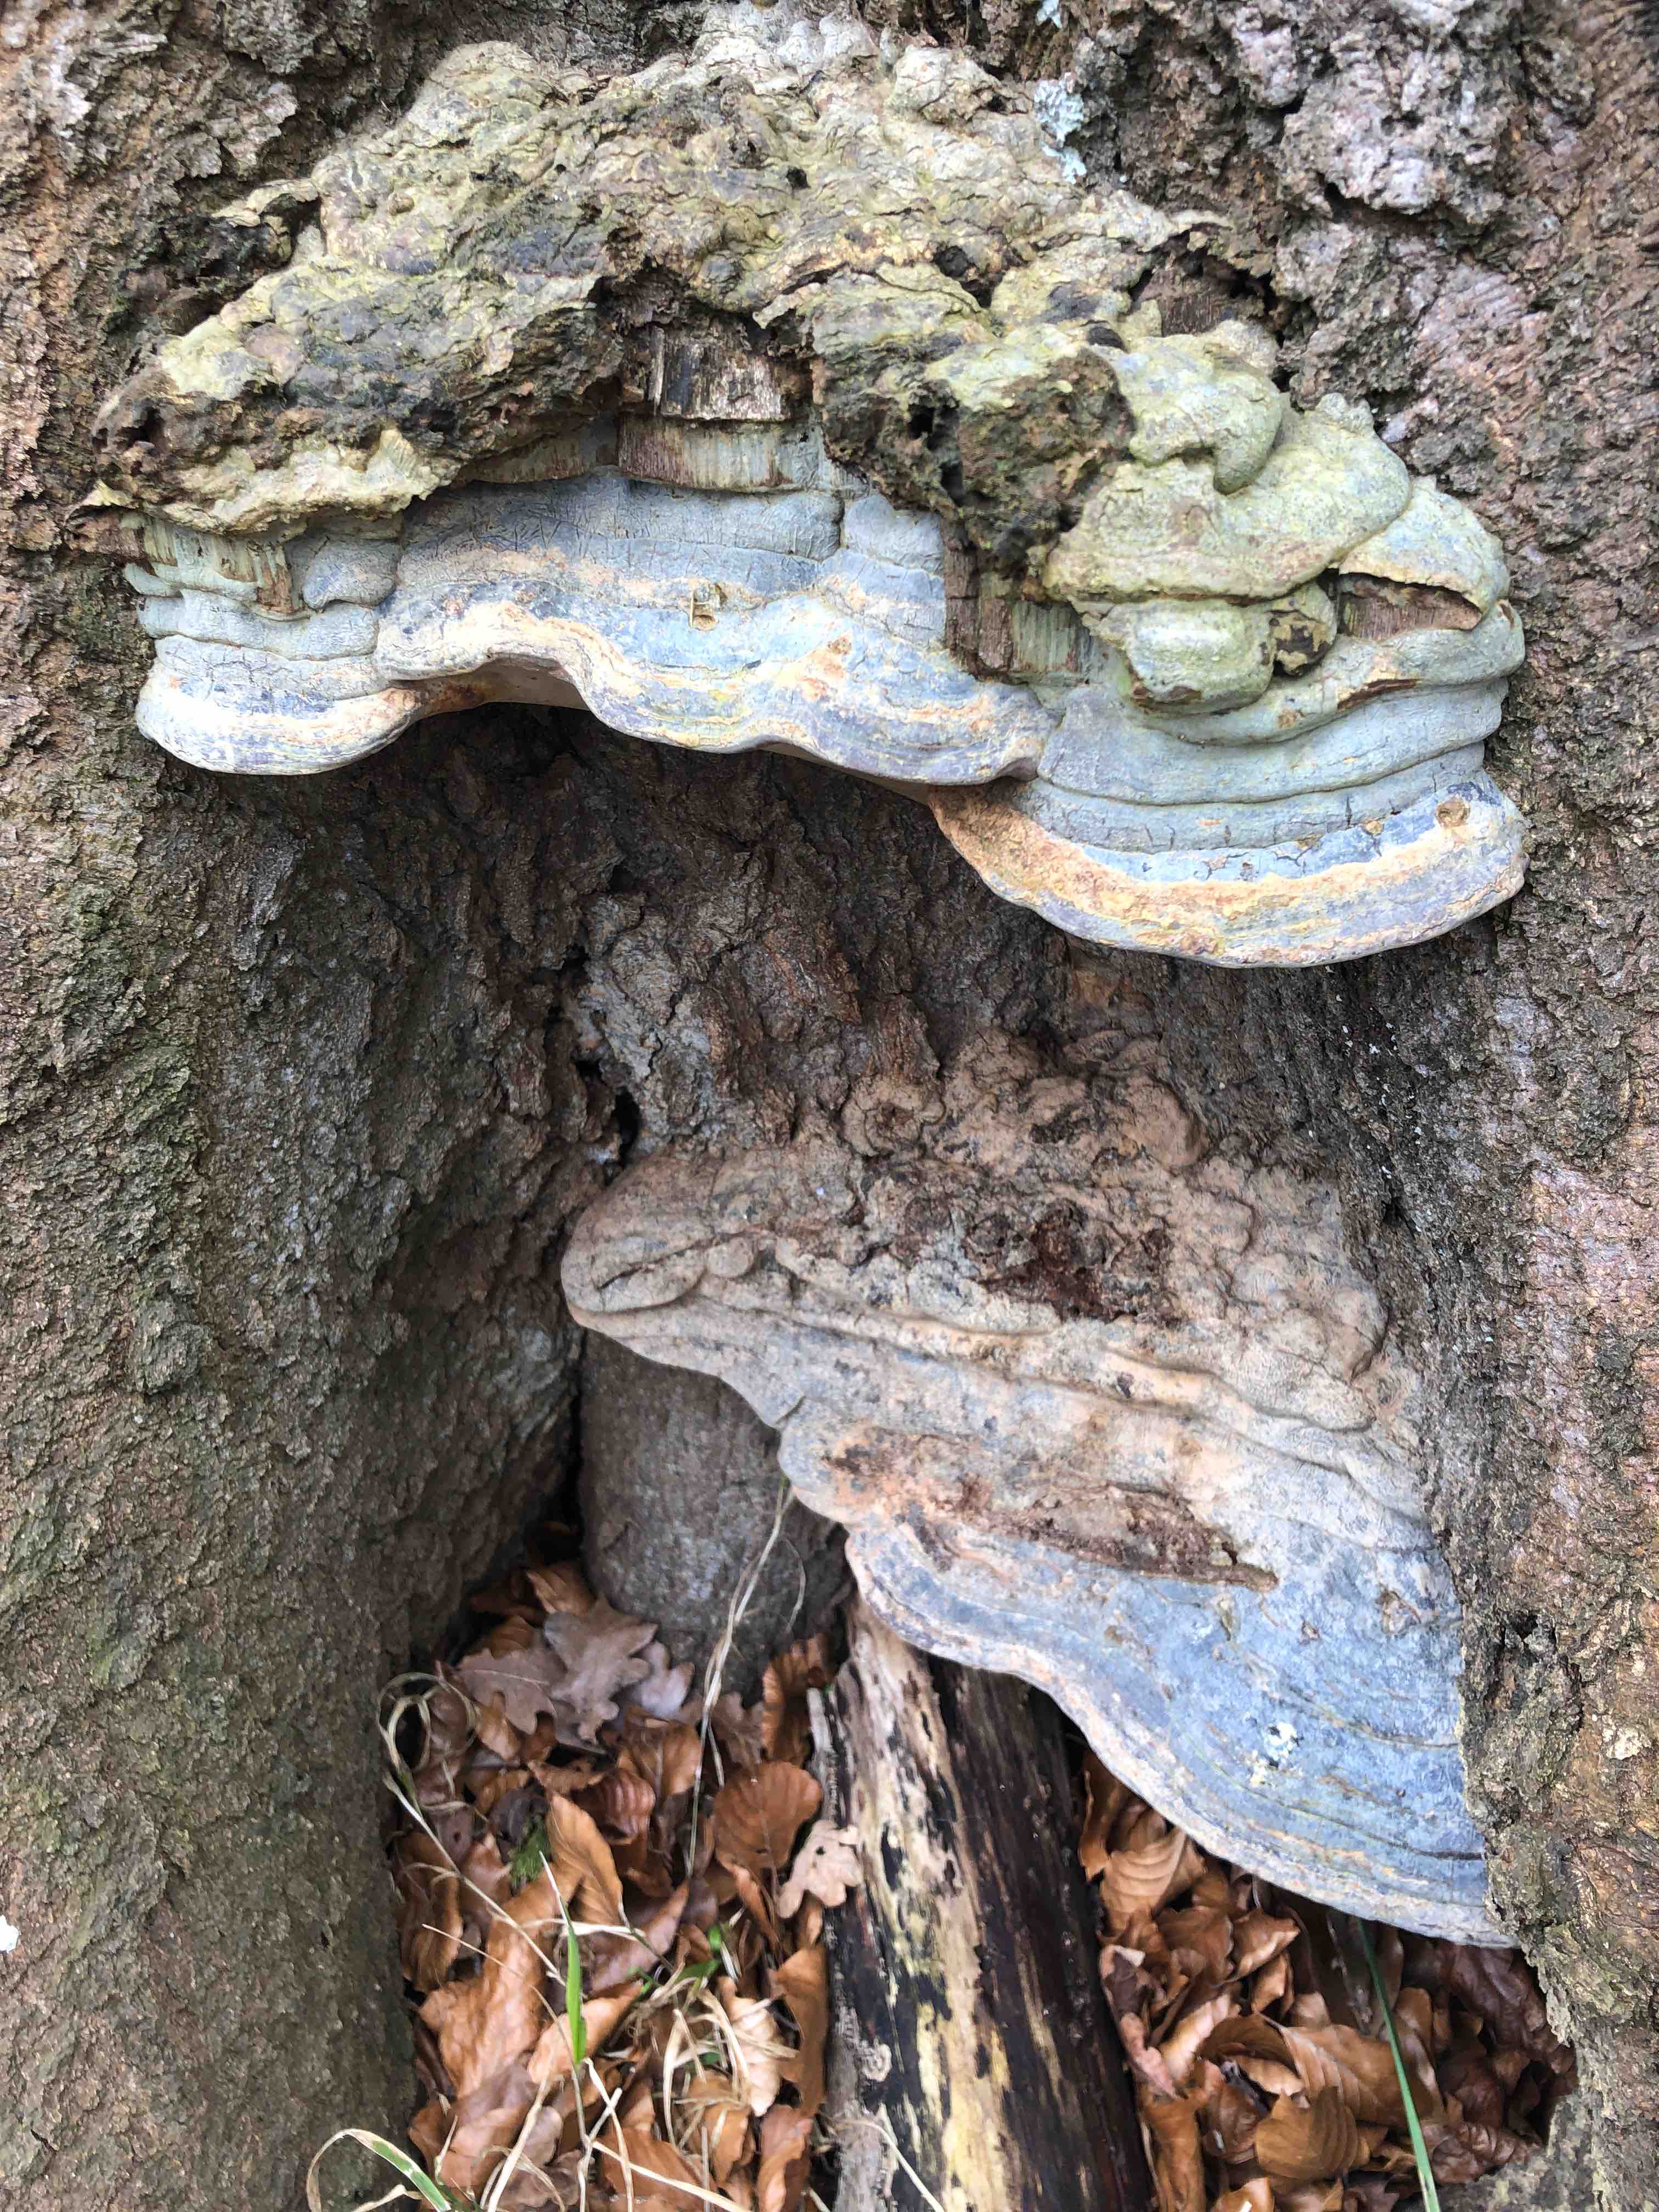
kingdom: Fungi
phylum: Basidiomycota
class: Agaricomycetes
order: Polyporales
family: Polyporaceae
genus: Ganoderma
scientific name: Ganoderma pfeifferi
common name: kobberrød lakporesvamp
